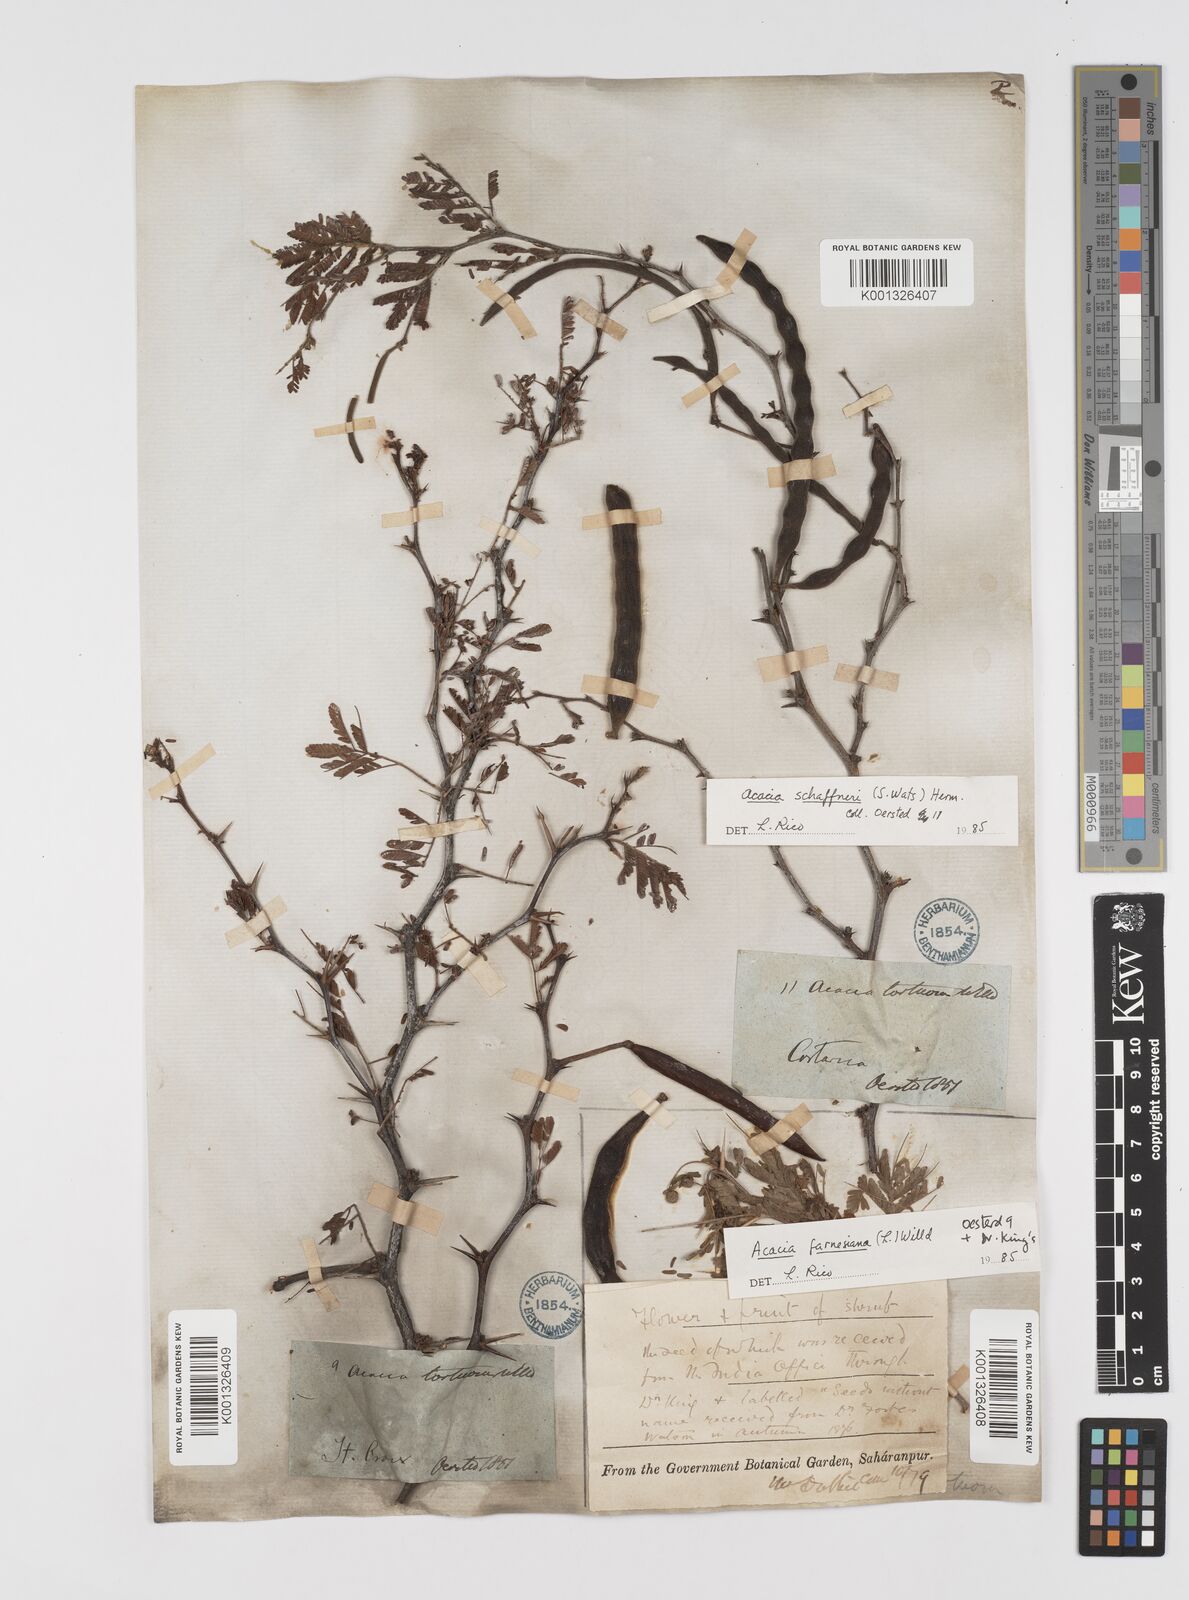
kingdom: Plantae
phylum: Tracheophyta
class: Magnoliopsida
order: Fabales
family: Fabaceae
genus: Vachellia
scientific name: Vachellia farnesiana
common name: Sweet acacia
